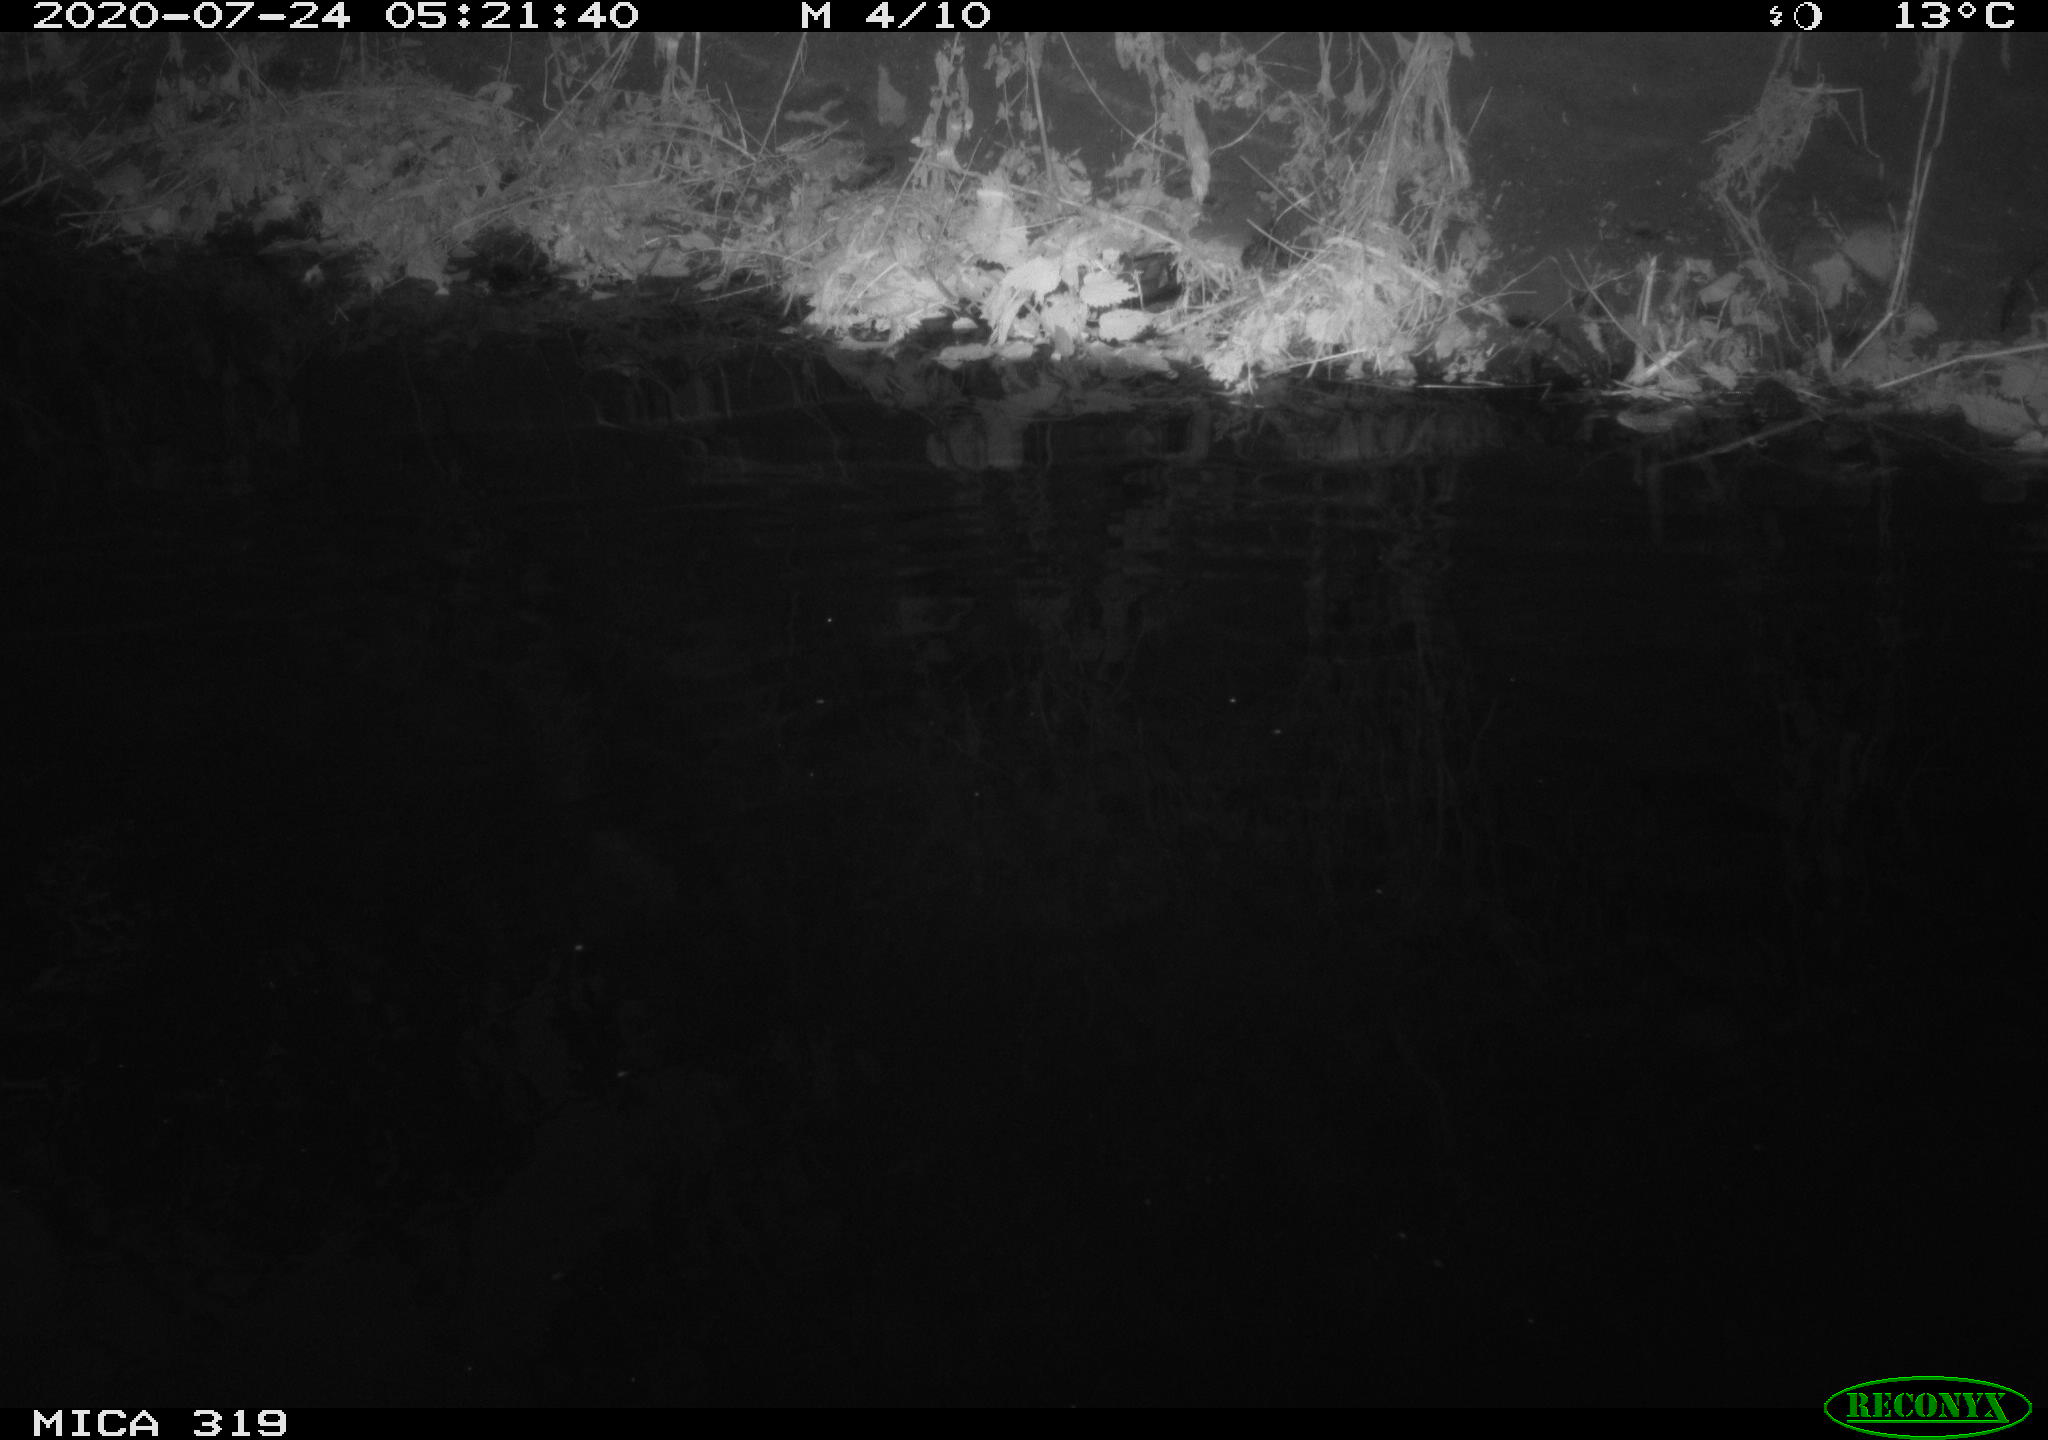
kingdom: Animalia
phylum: Chordata
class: Aves
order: Anseriformes
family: Anatidae
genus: Anas
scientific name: Anas platyrhynchos
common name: Mallard
